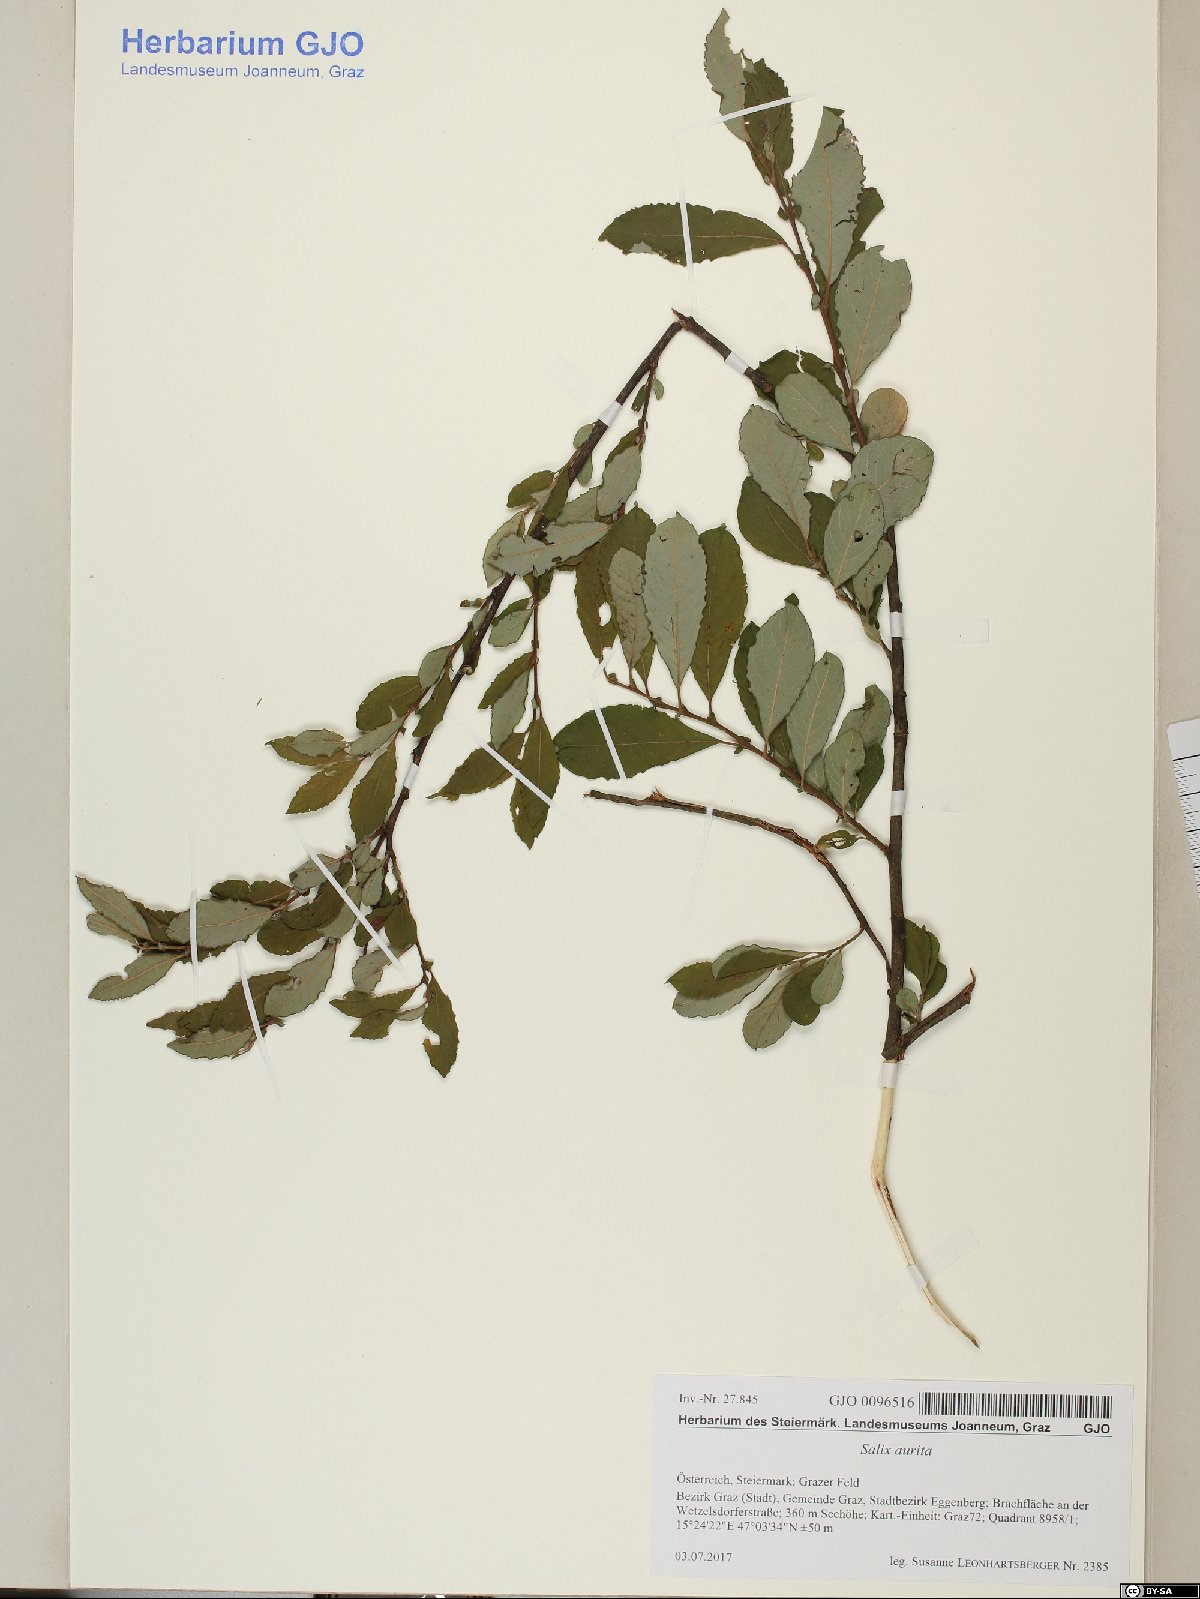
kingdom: Plantae
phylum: Tracheophyta
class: Magnoliopsida
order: Malpighiales
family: Salicaceae
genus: Salix
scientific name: Salix aurita
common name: Eared willow
